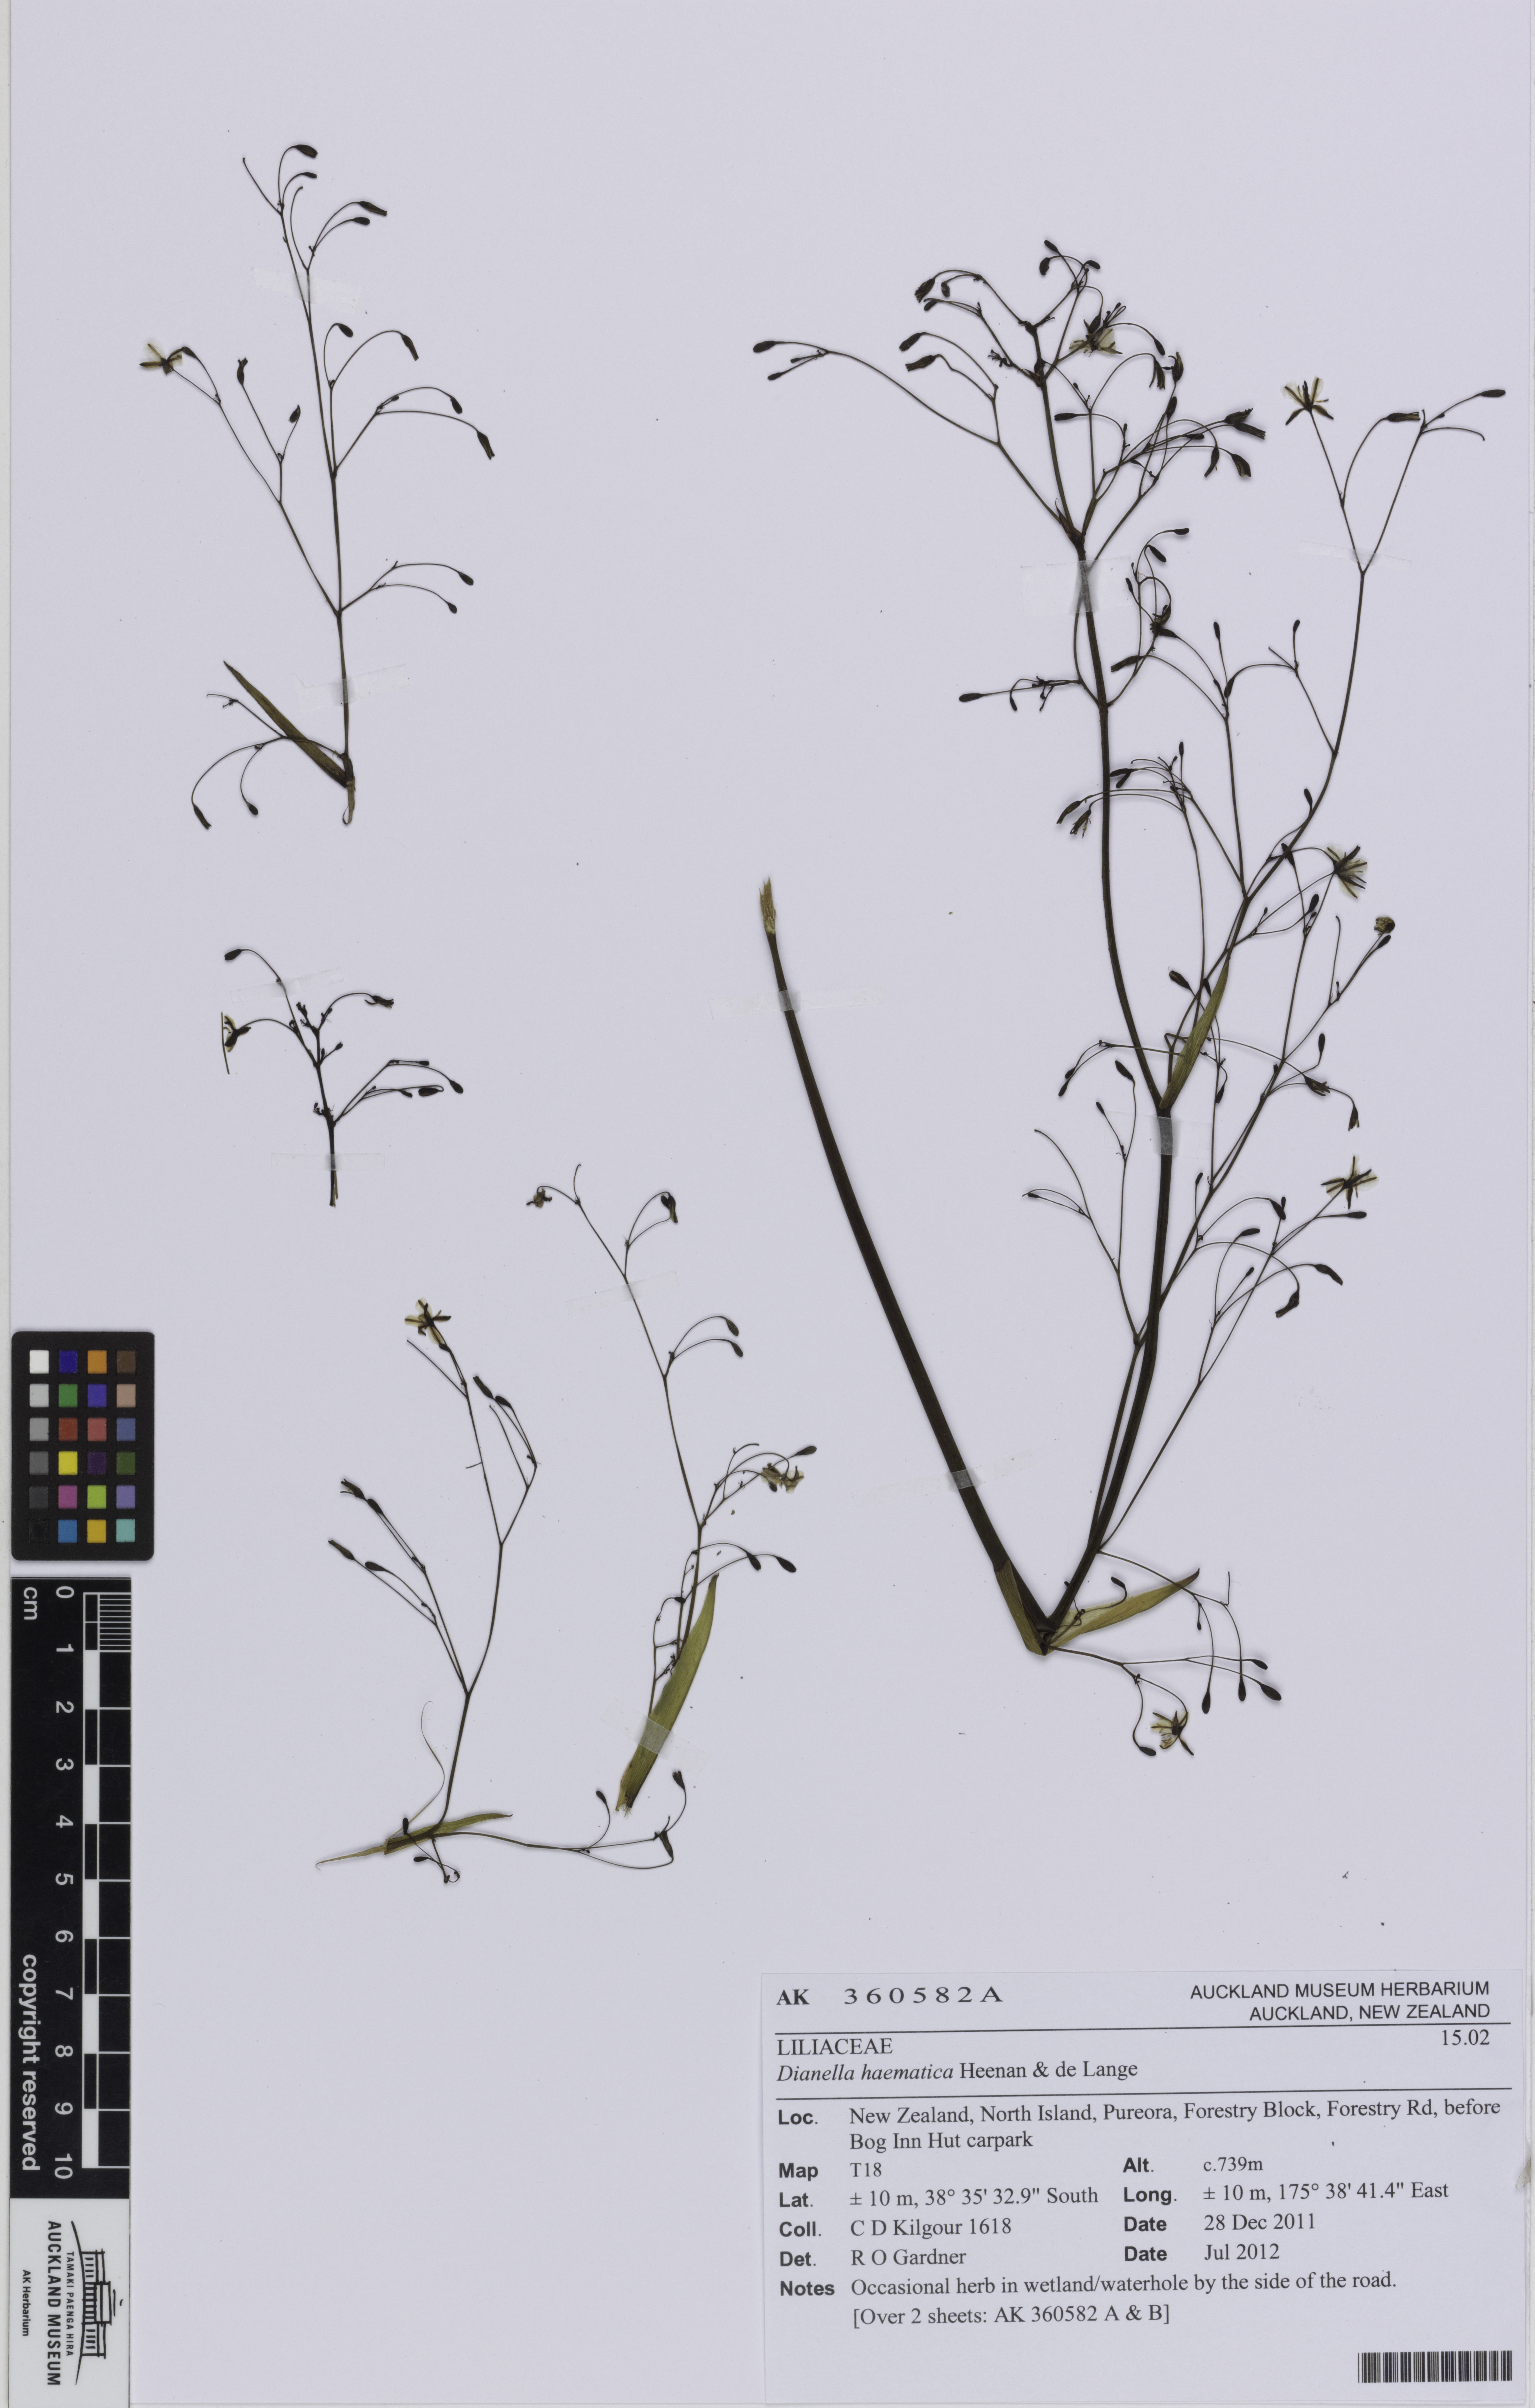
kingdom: Plantae
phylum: Tracheophyta
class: Liliopsida
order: Asparagales
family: Asphodelaceae
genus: Dianella
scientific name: Dianella haematica
